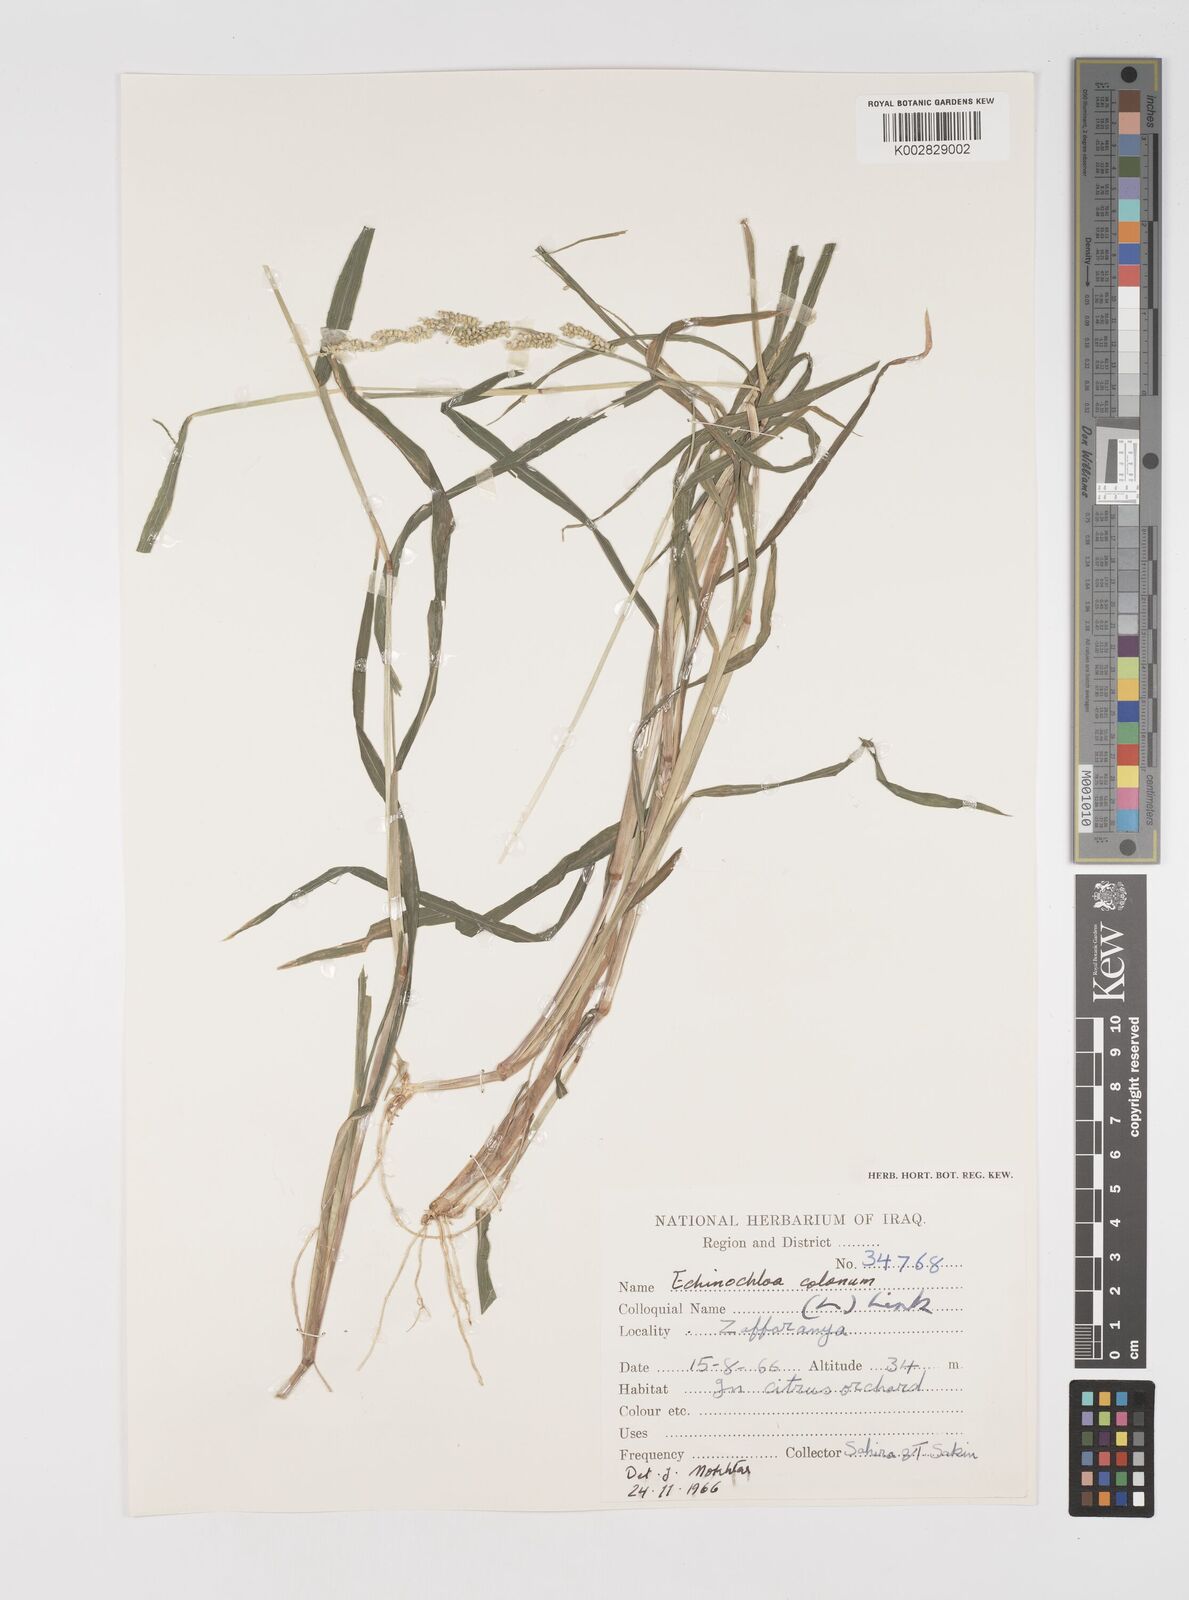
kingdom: Plantae
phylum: Tracheophyta
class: Liliopsida
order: Poales
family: Poaceae
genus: Echinochloa
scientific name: Echinochloa colonum
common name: Jungle rice
